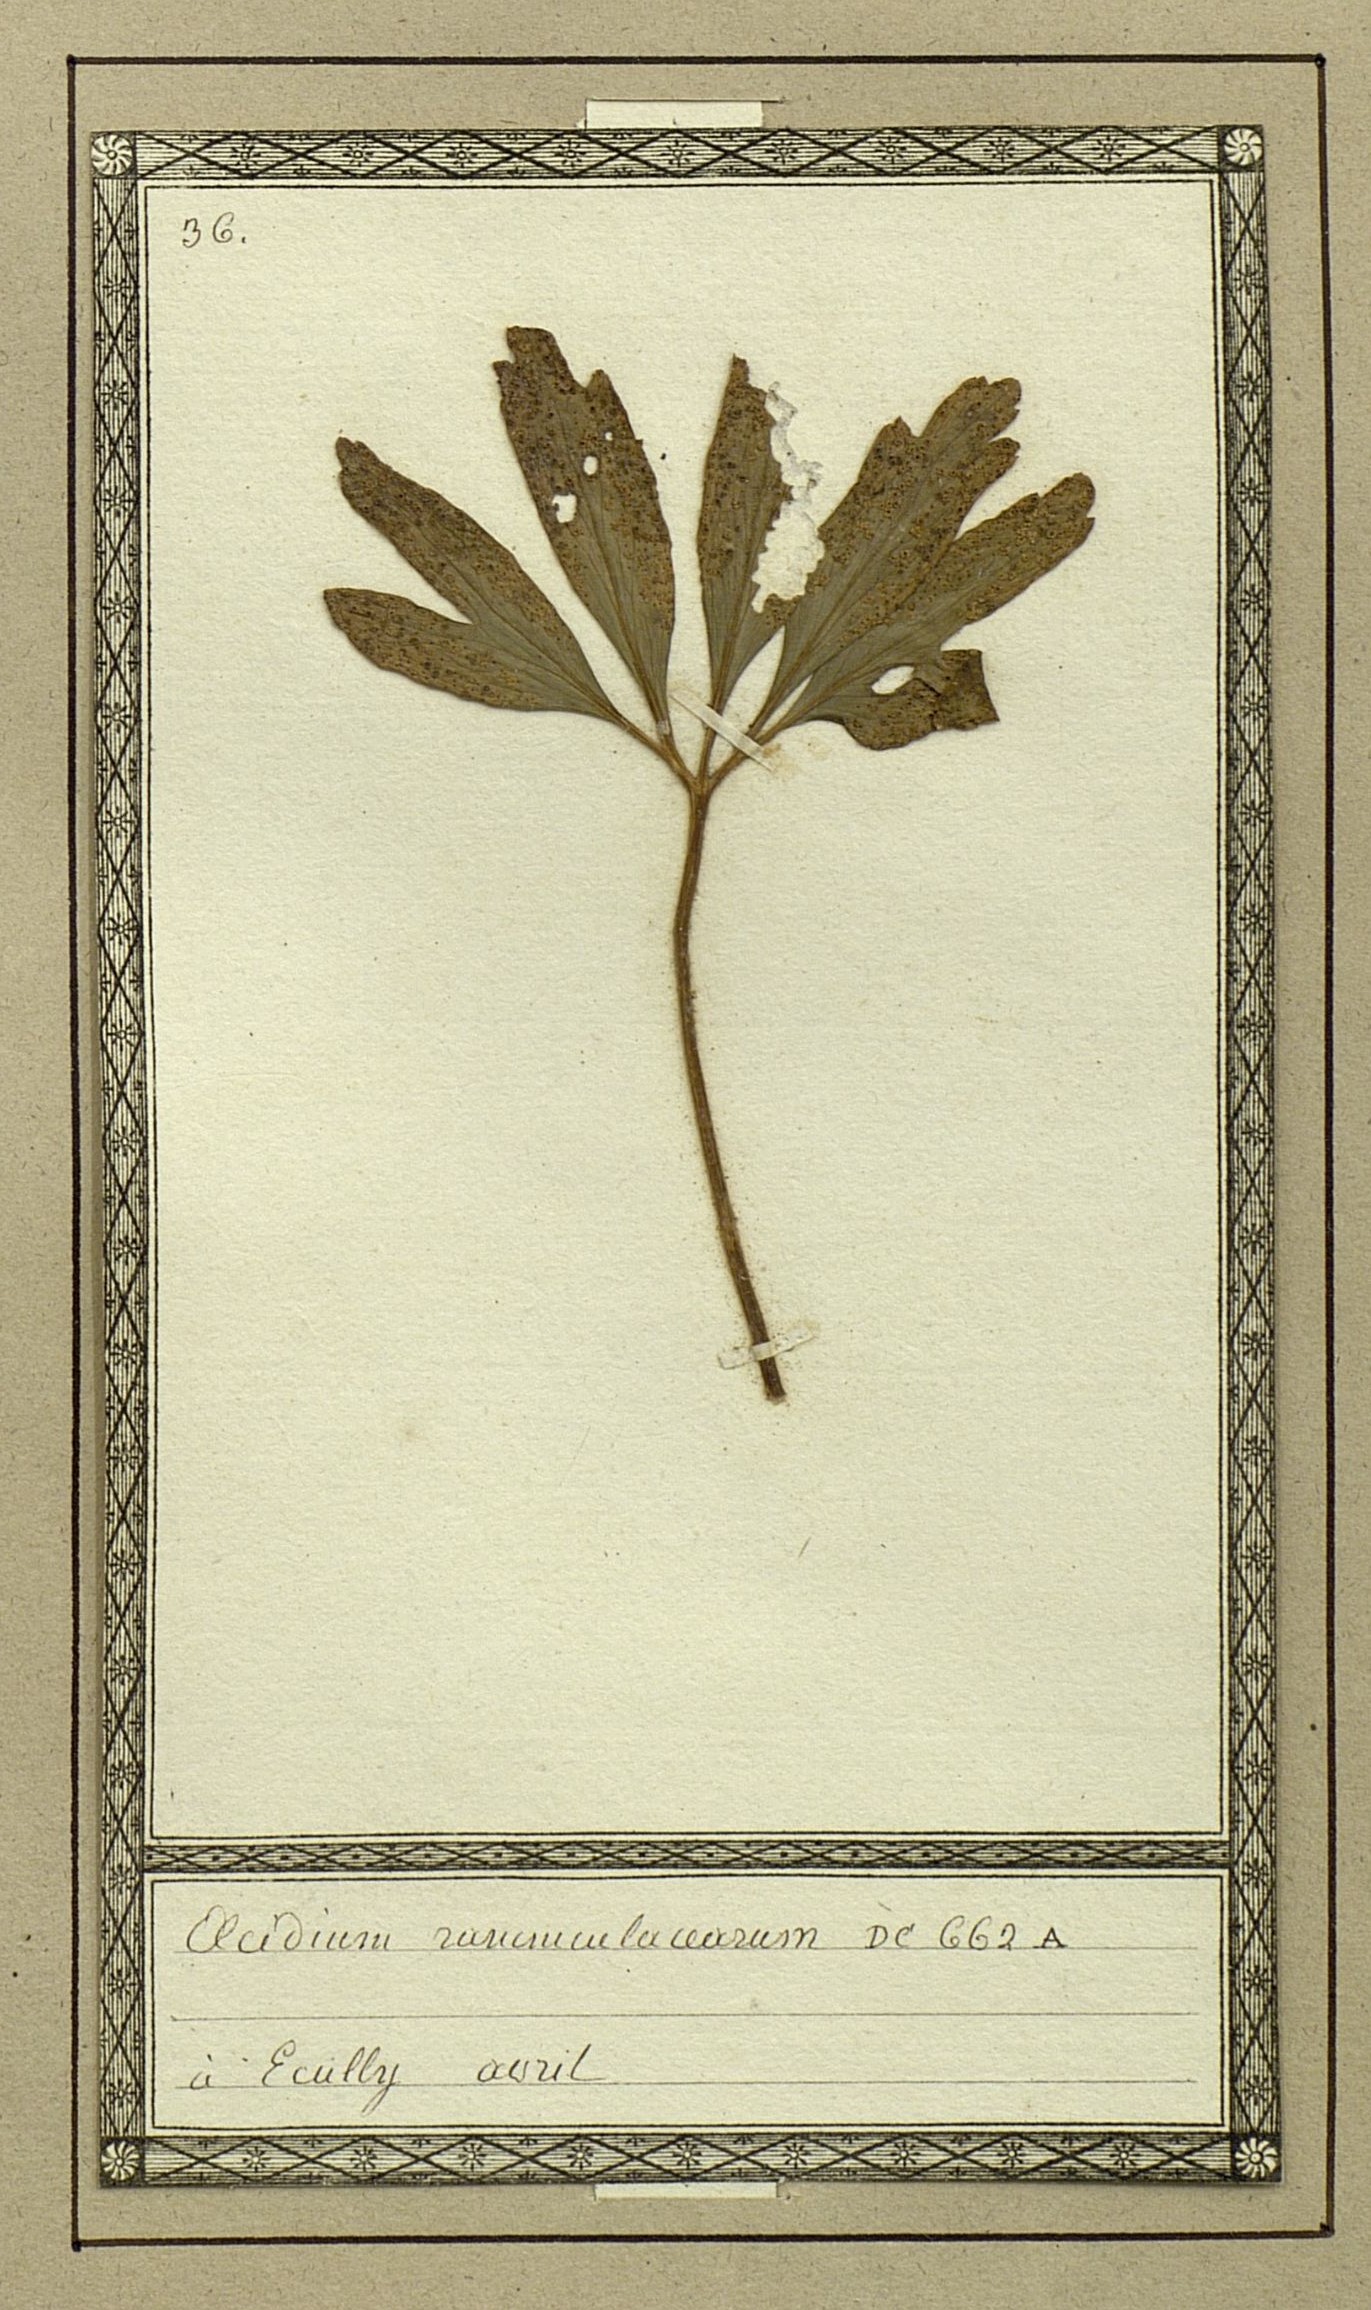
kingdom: Fungi
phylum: Basidiomycota
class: Pucciniomycetes
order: Pucciniales
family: Pucciniaceae
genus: Uromyces
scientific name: Uromyces dactylidis
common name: Celandine clustercup rust
